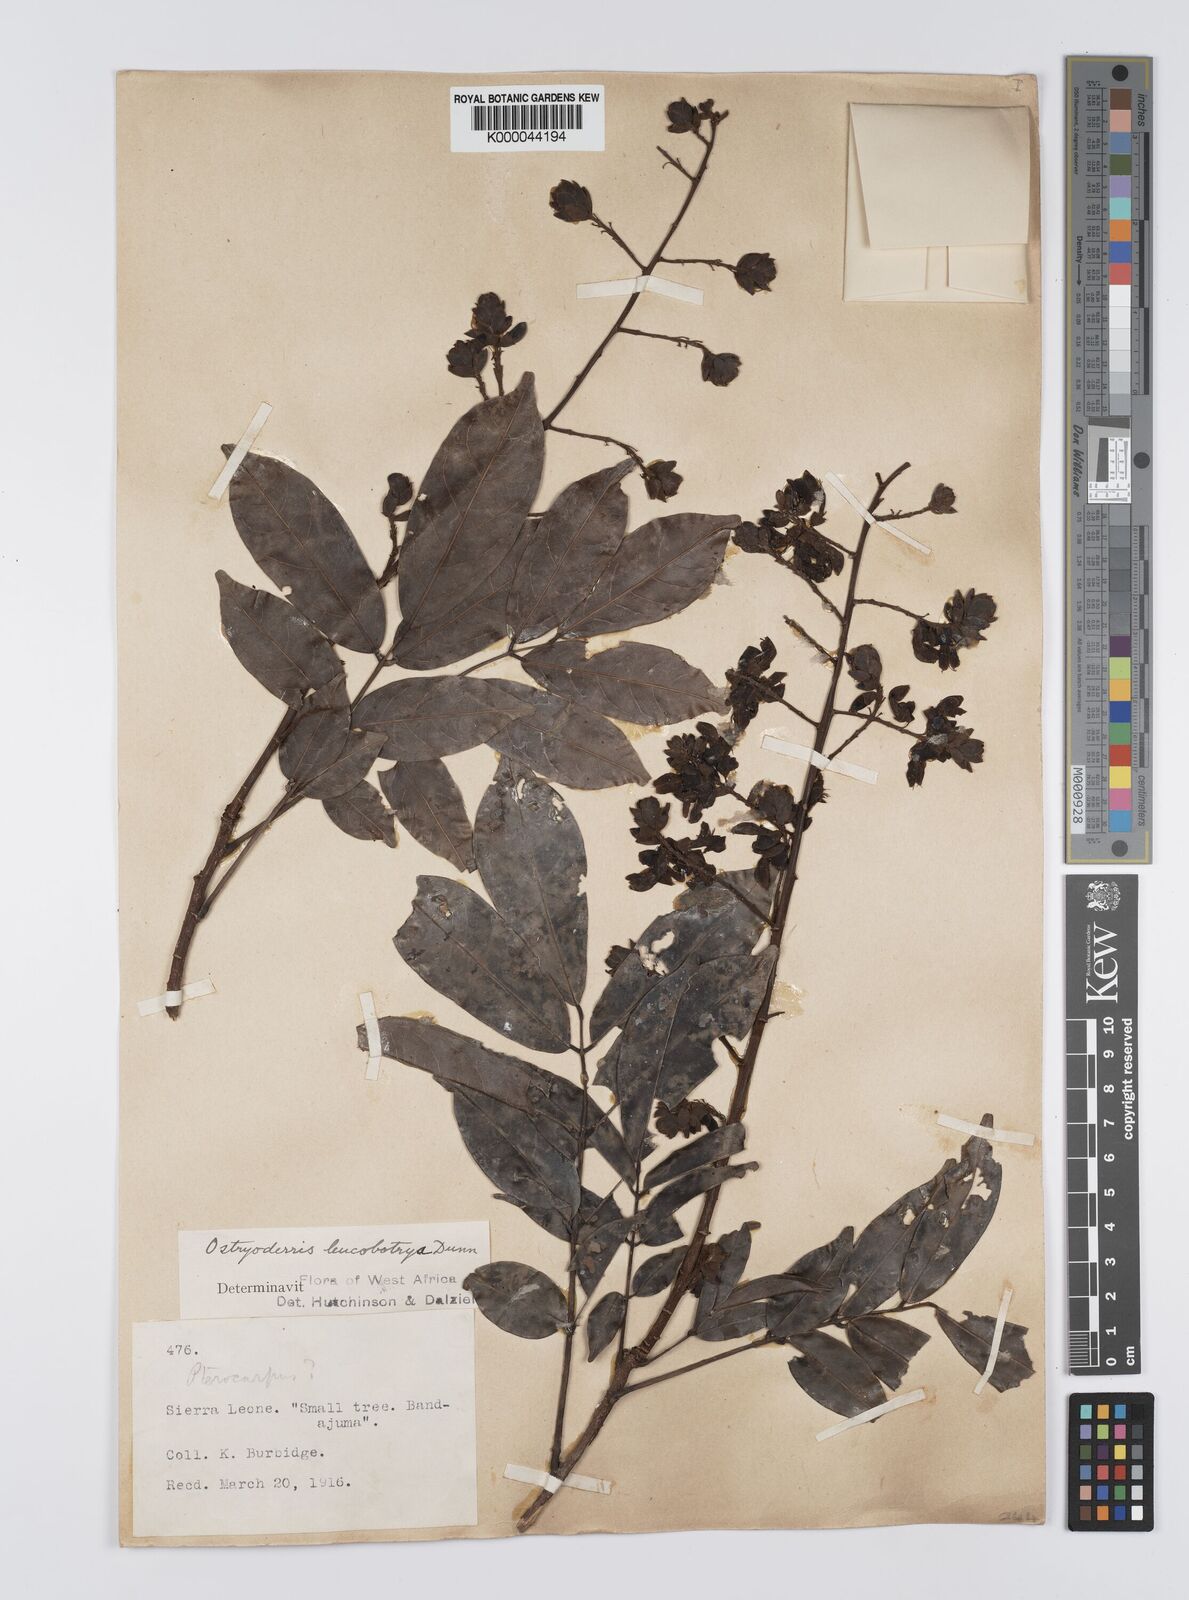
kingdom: Plantae
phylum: Tracheophyta
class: Magnoliopsida
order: Fabales
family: Fabaceae
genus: Aganope
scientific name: Aganope leucobotrya
